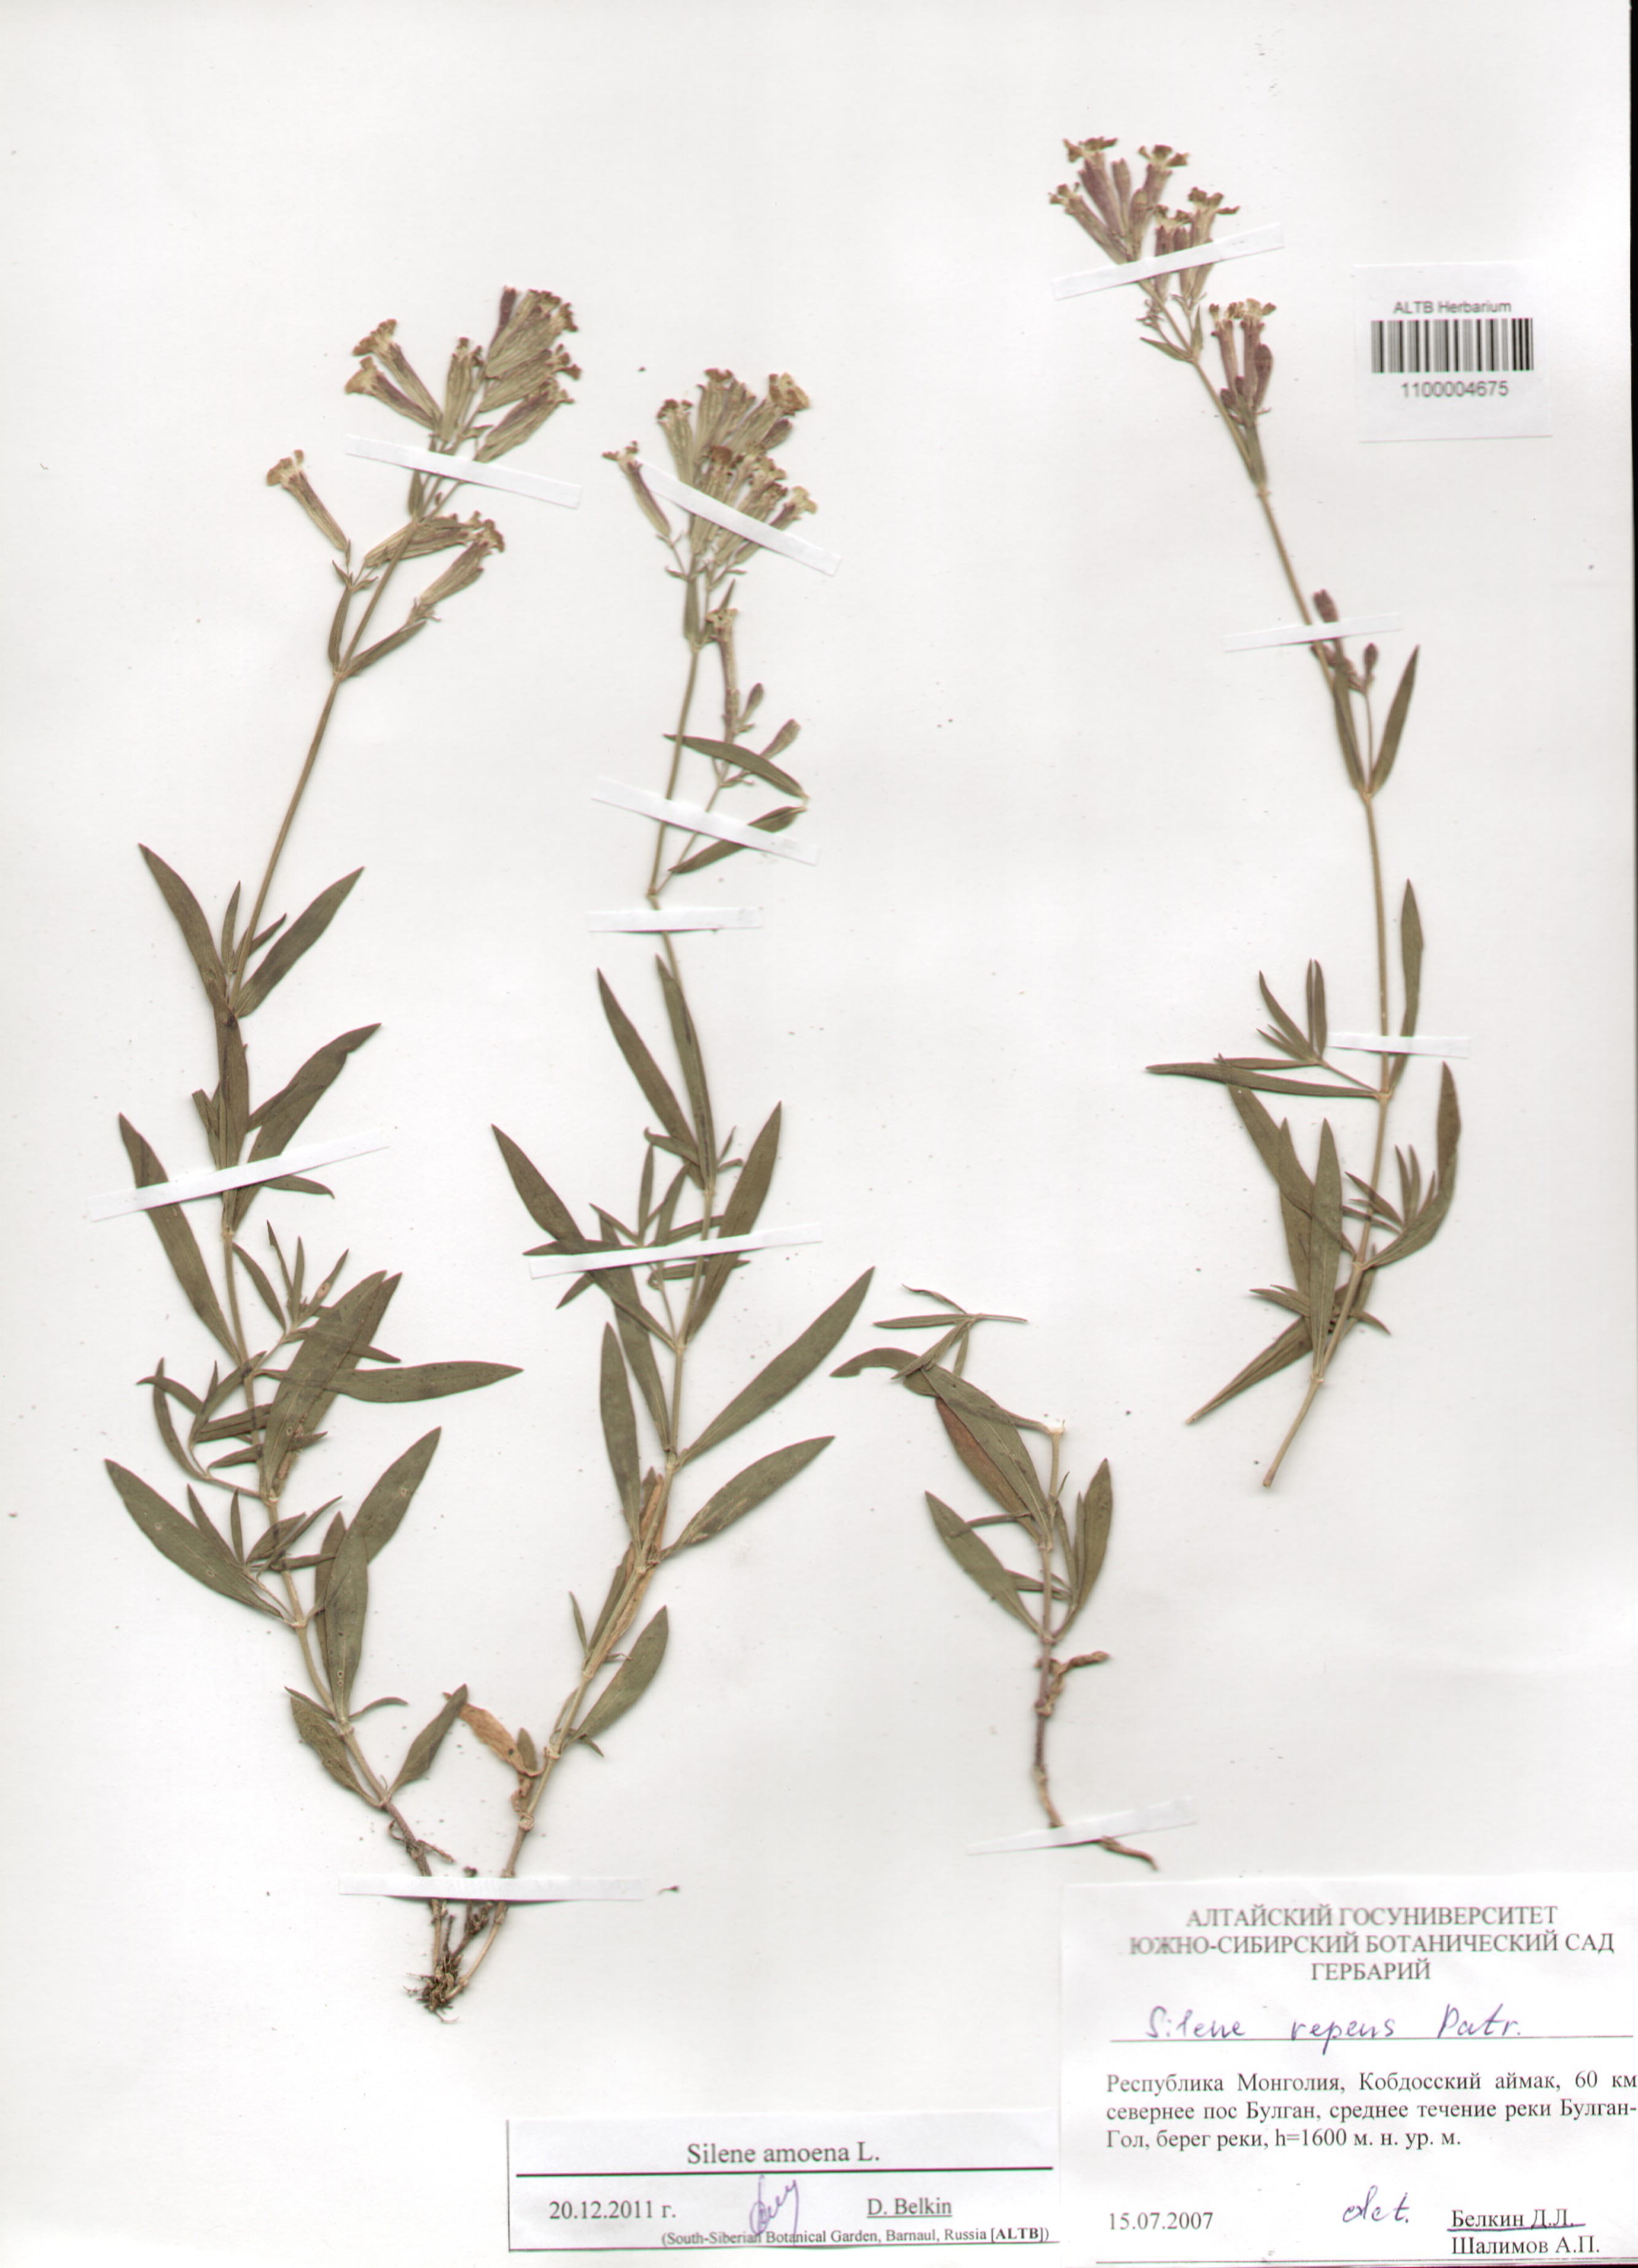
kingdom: Plantae
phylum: Tracheophyta
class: Magnoliopsida
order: Caryophyllales
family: Caryophyllaceae
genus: Silene
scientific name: Silene amoena
